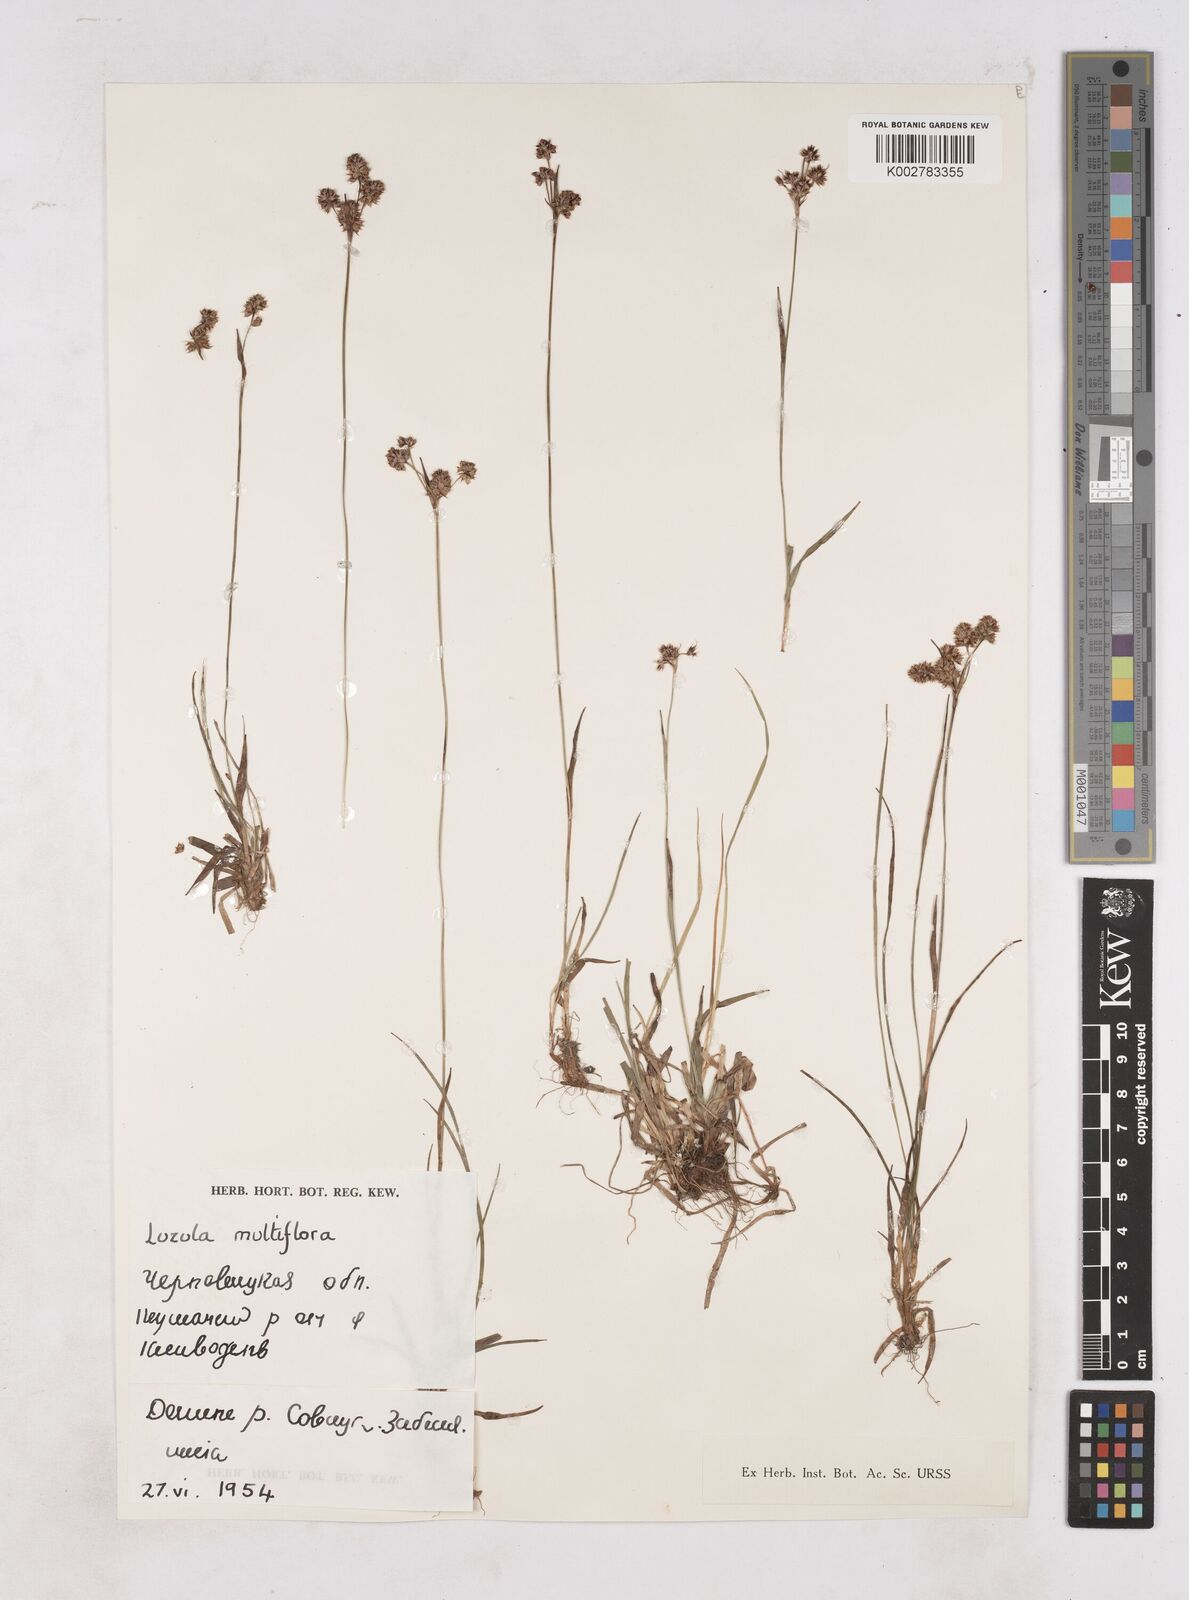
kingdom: Plantae
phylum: Tracheophyta
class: Liliopsida
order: Poales
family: Juncaceae
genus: Luzula
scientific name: Luzula multiflora
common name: Heath wood-rush
